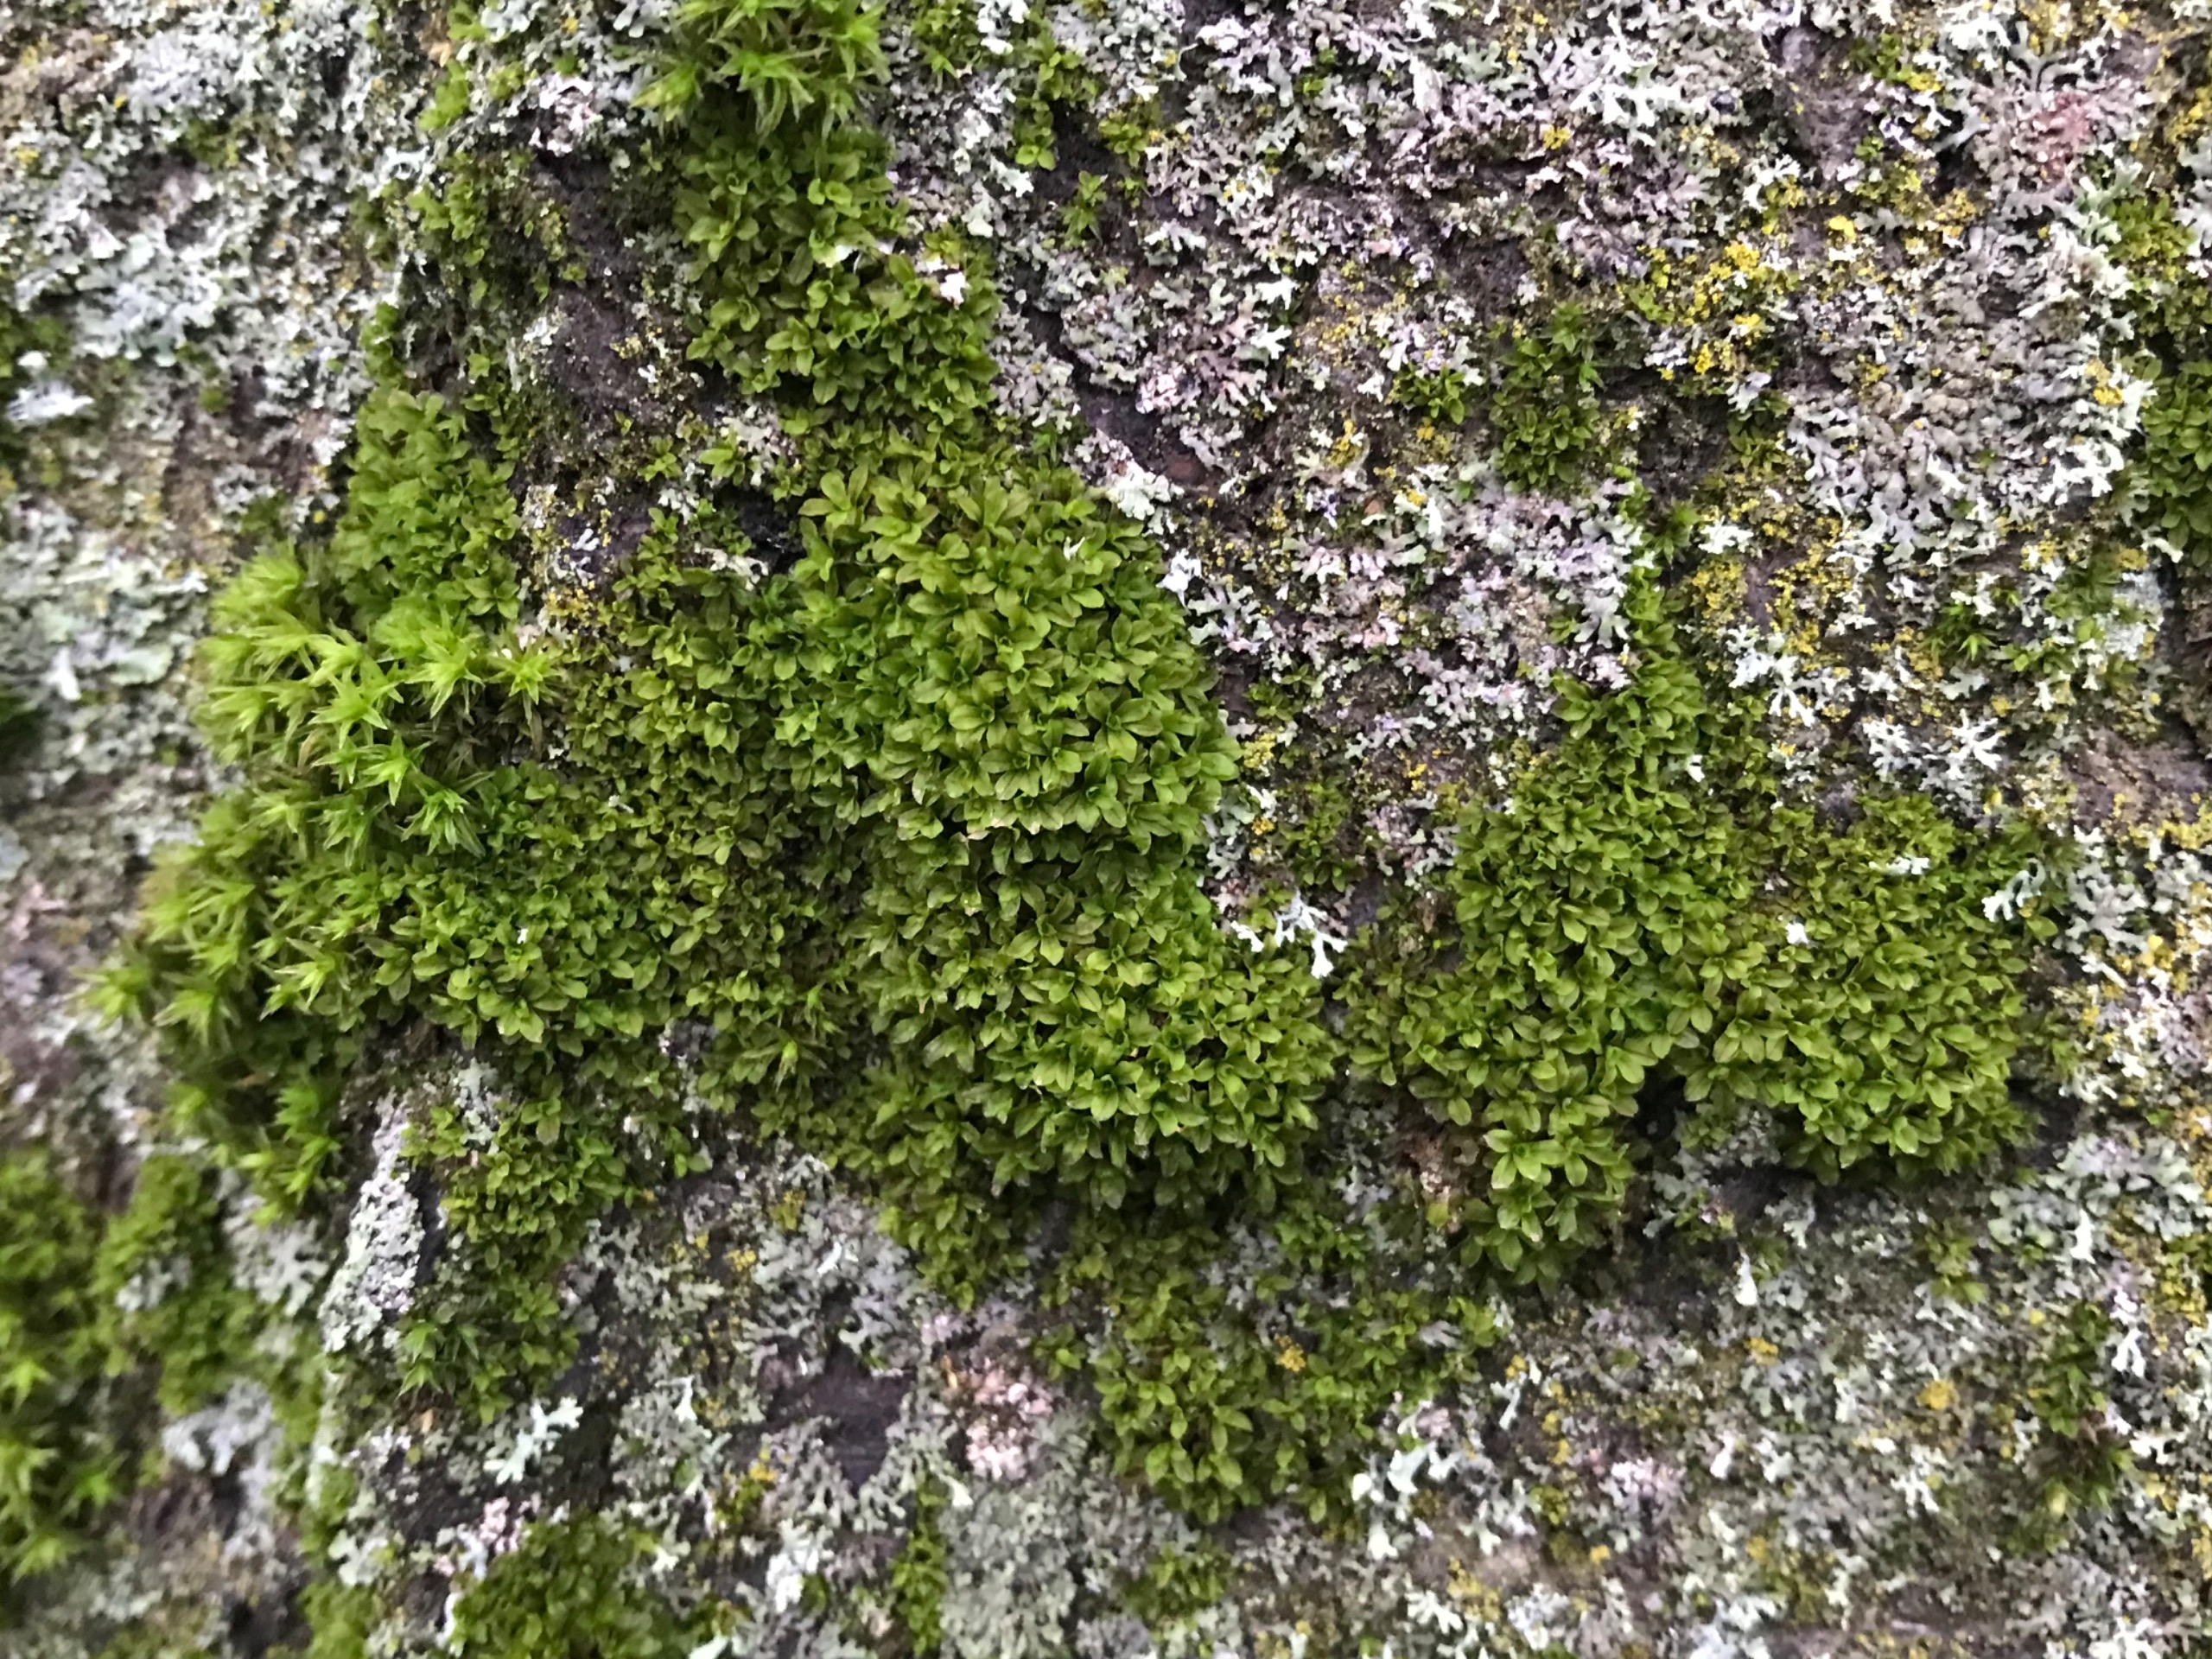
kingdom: Plantae
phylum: Bryophyta
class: Bryopsida
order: Pottiales
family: Pottiaceae
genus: Syntrichia
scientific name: Syntrichia latifolia
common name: Butbladet hårstjerne
